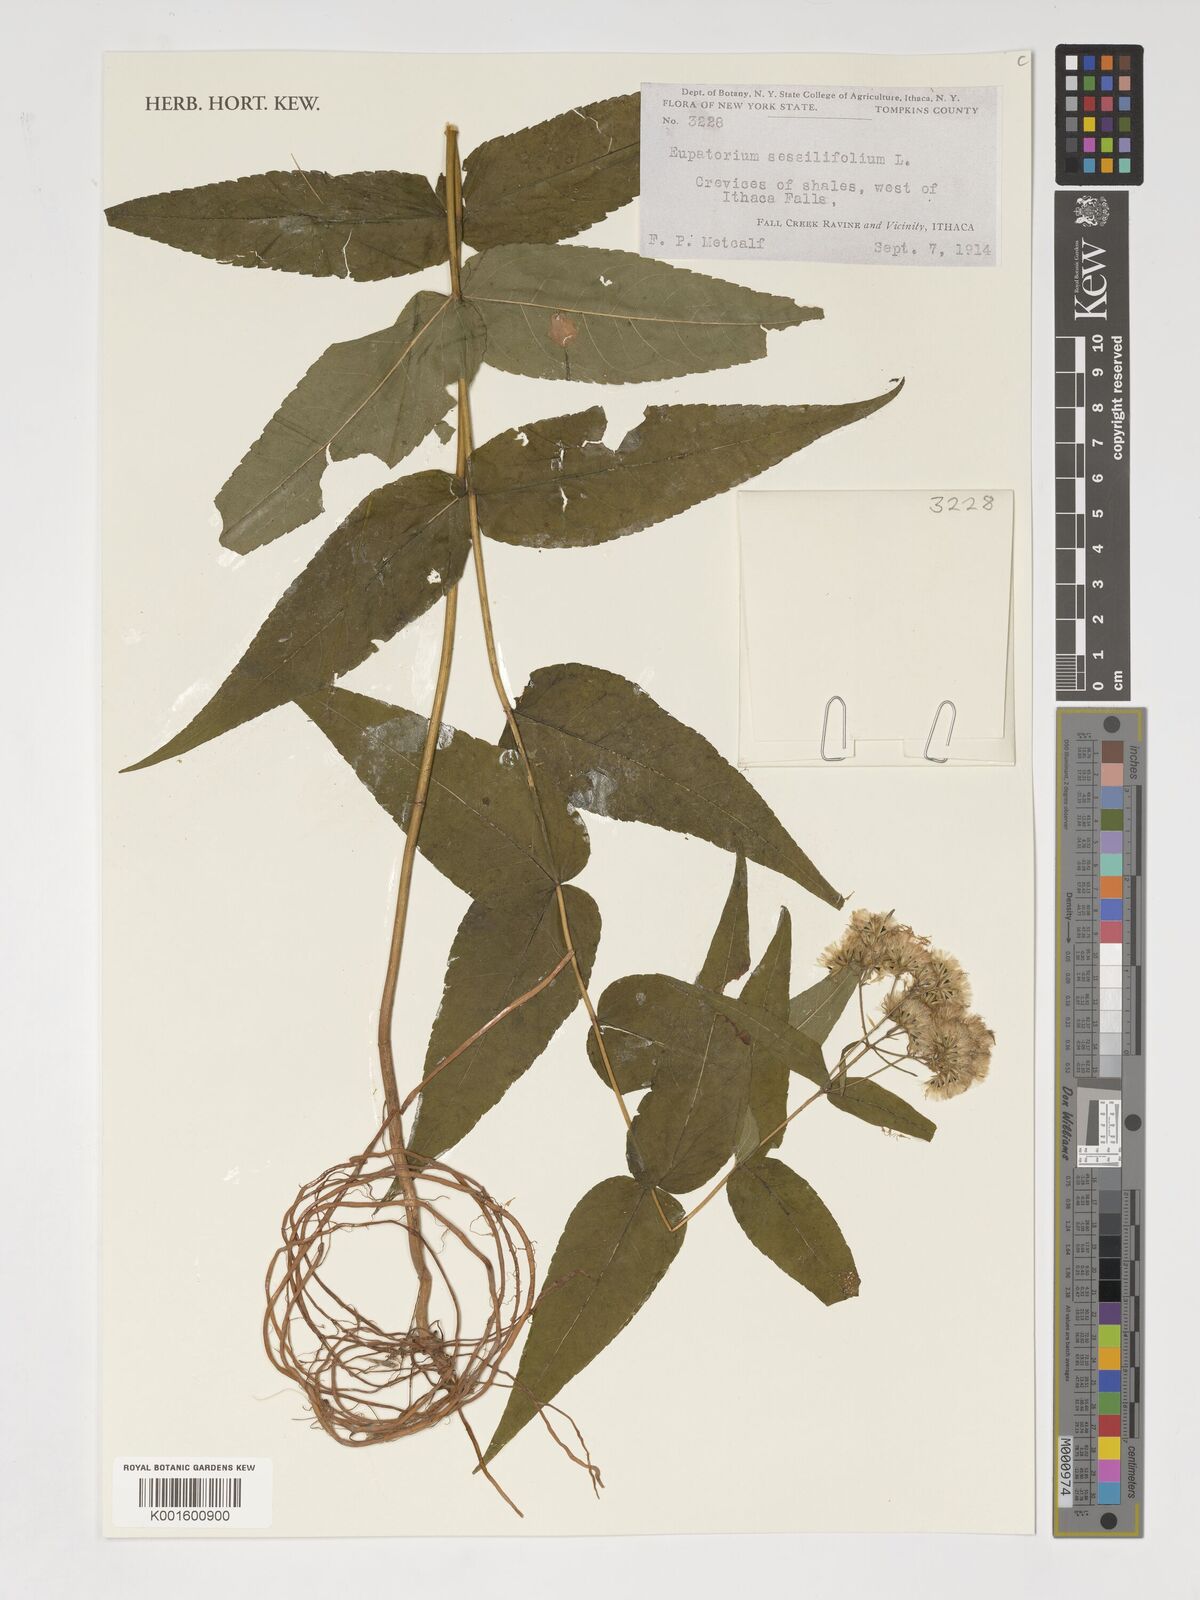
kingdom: Plantae
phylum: Tracheophyta
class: Magnoliopsida
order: Asterales
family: Asteraceae
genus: Eupatorium
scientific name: Eupatorium sessilifolium
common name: Upland boneset
